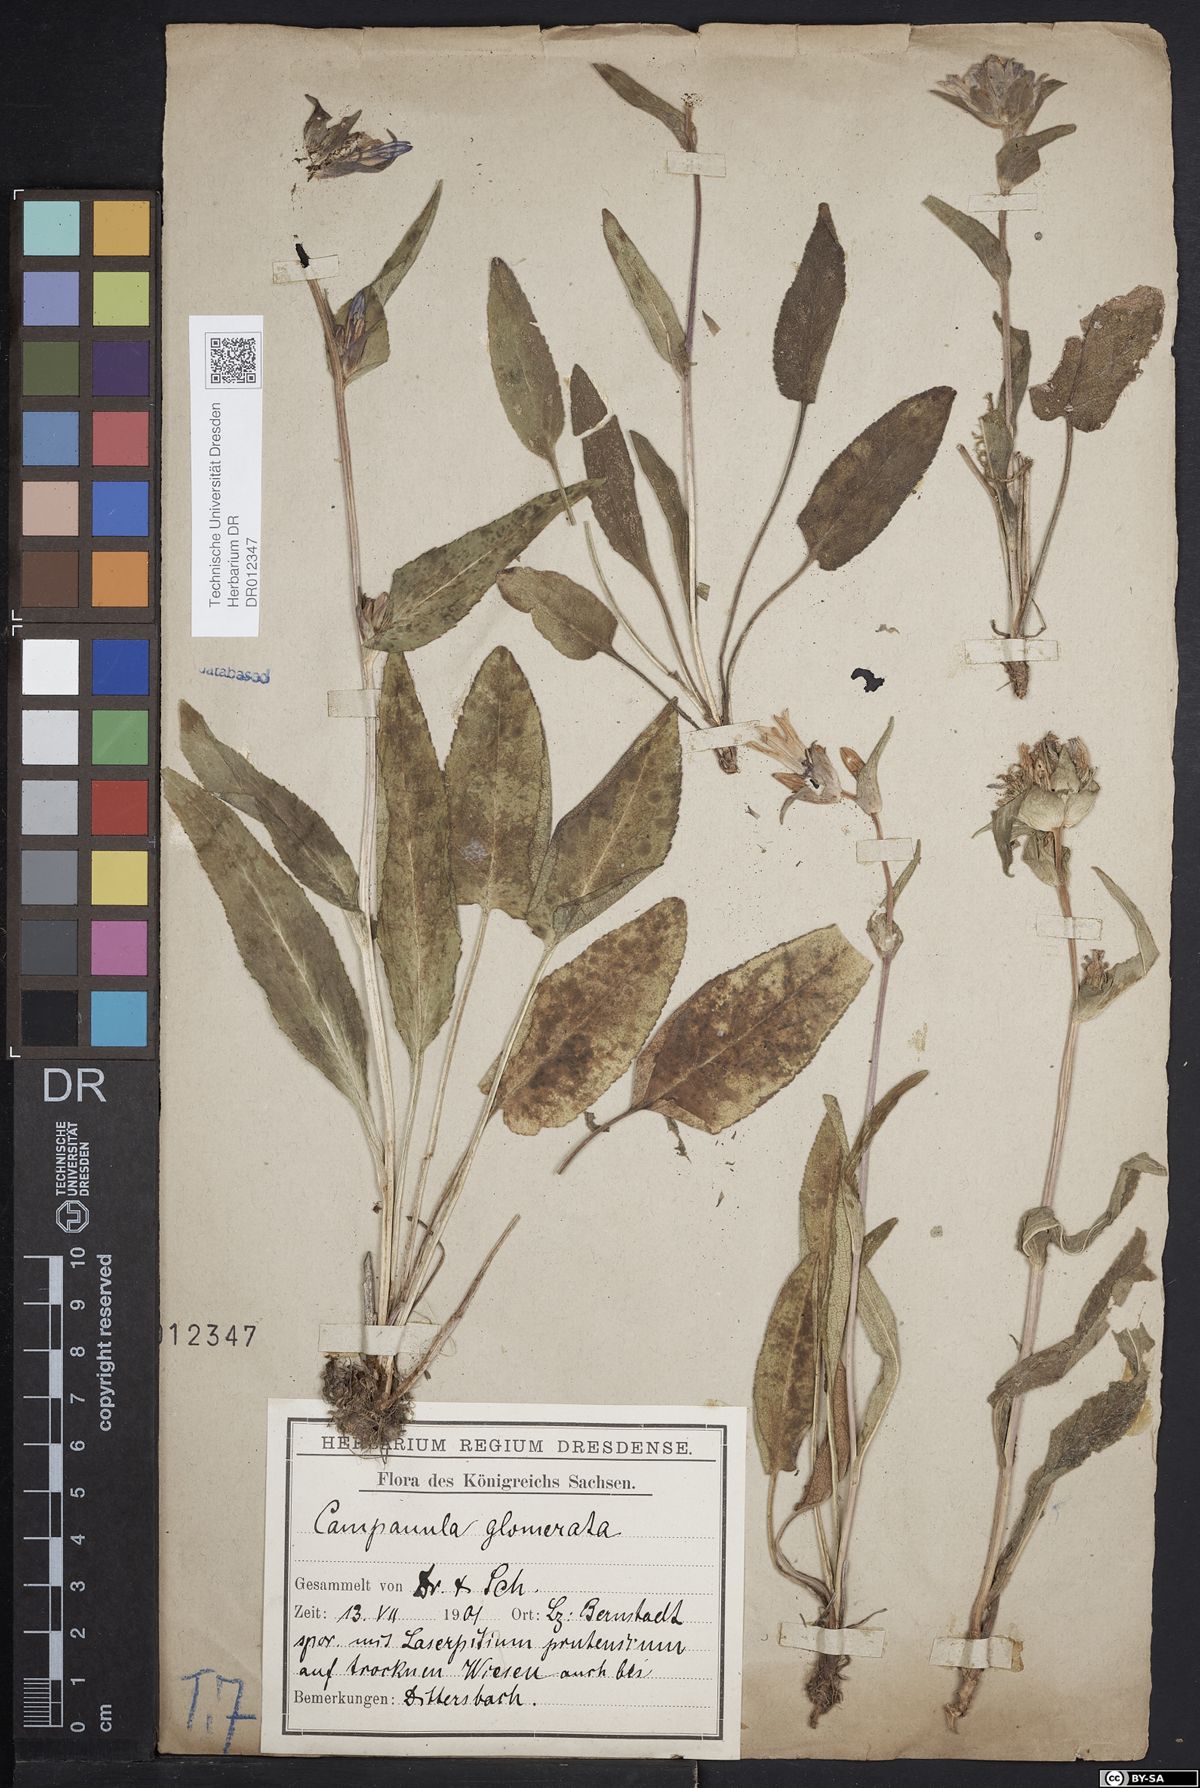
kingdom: Plantae
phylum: Tracheophyta
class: Magnoliopsida
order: Asterales
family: Campanulaceae
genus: Campanula
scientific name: Campanula glomerata
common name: Clustered bellflower
